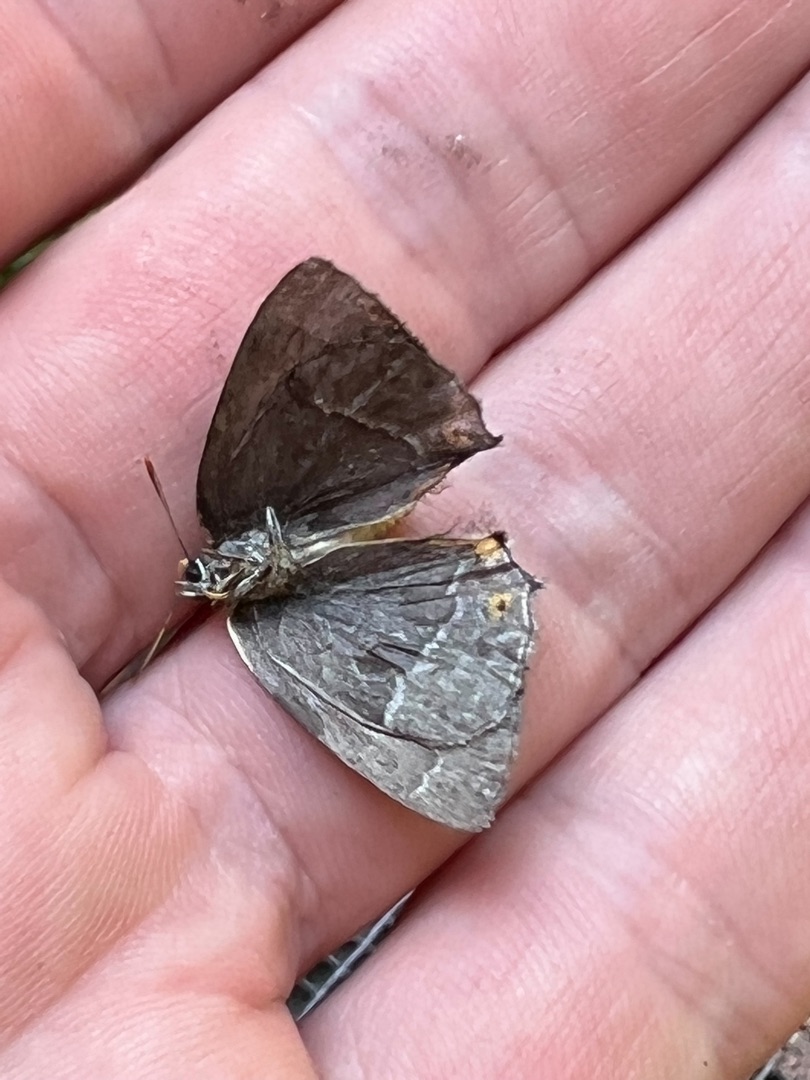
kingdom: Animalia
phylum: Arthropoda
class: Insecta
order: Lepidoptera
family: Lycaenidae
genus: Quercusia
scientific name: Quercusia quercus
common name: Blåhale
